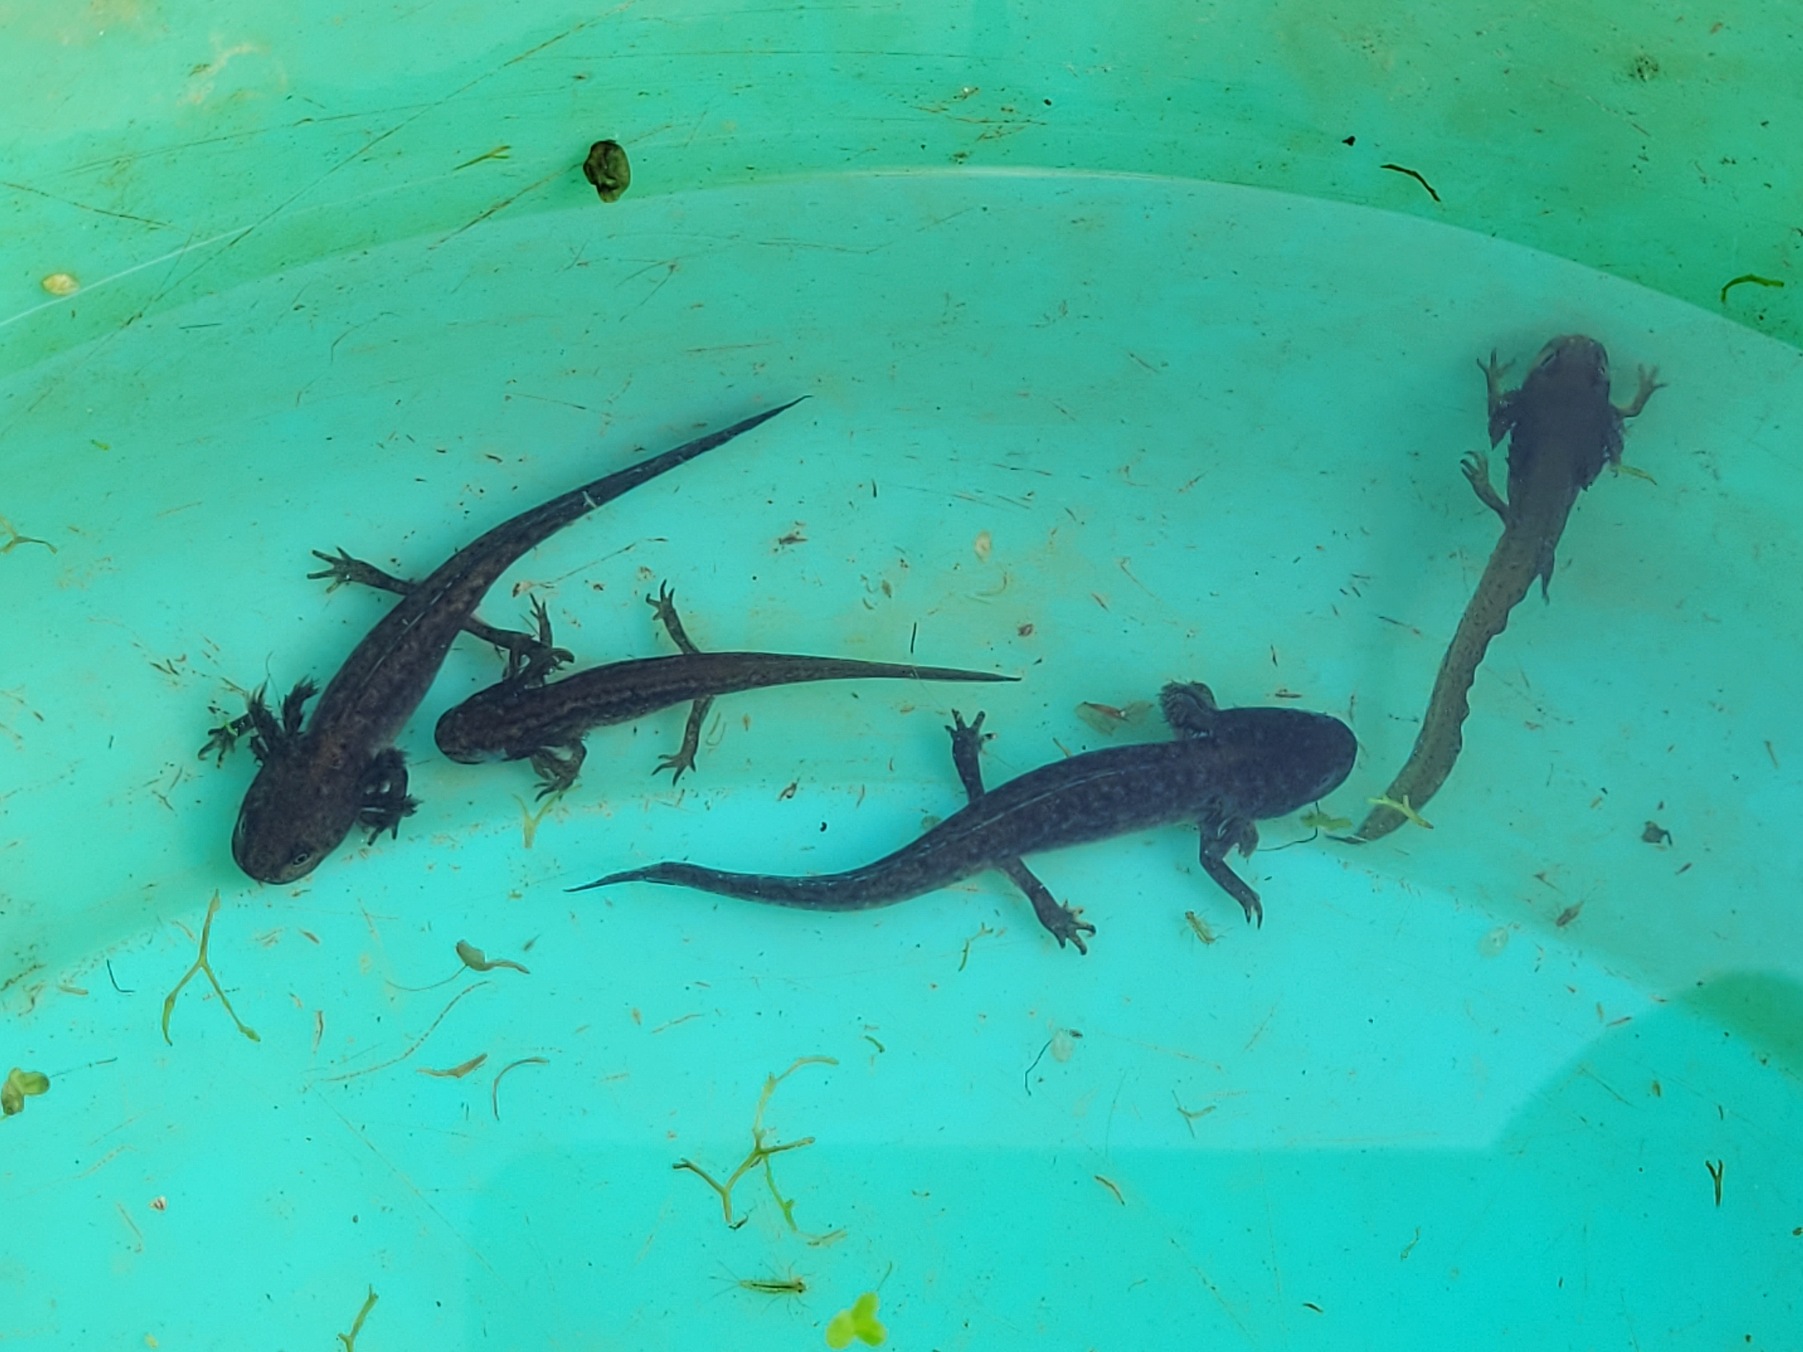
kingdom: Animalia
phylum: Chordata
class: Amphibia
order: Caudata
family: Salamandridae
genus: Lissotriton
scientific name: Lissotriton vulgaris
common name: Lille vandsalamander
